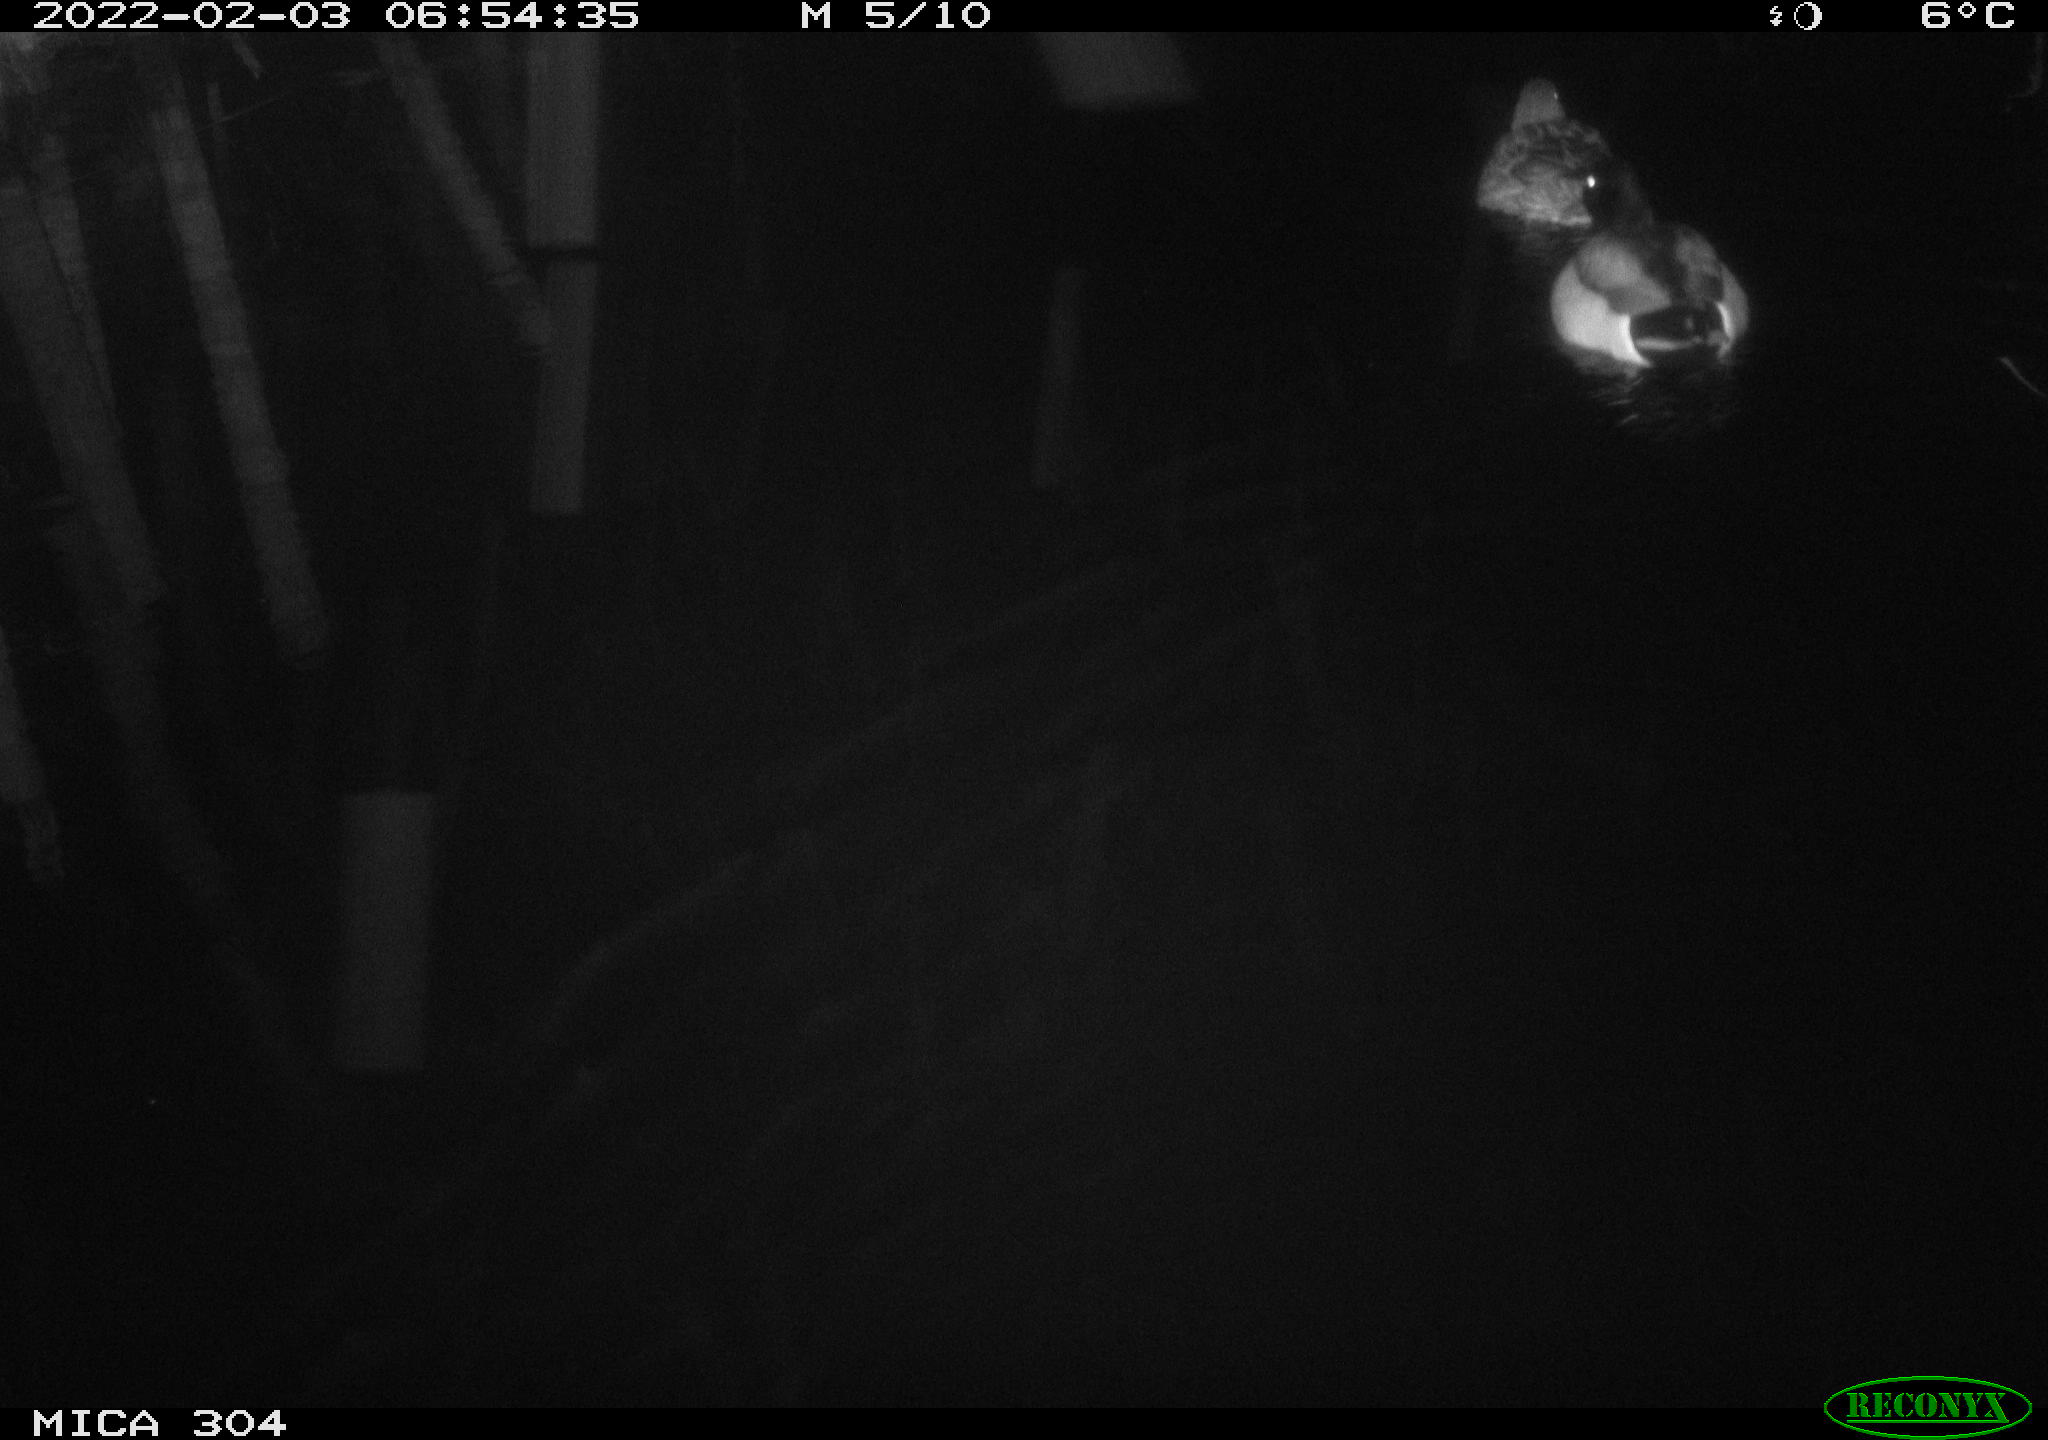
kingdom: Animalia
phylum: Chordata
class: Aves
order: Anseriformes
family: Anatidae
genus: Anas
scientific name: Anas platyrhynchos
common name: Mallard
